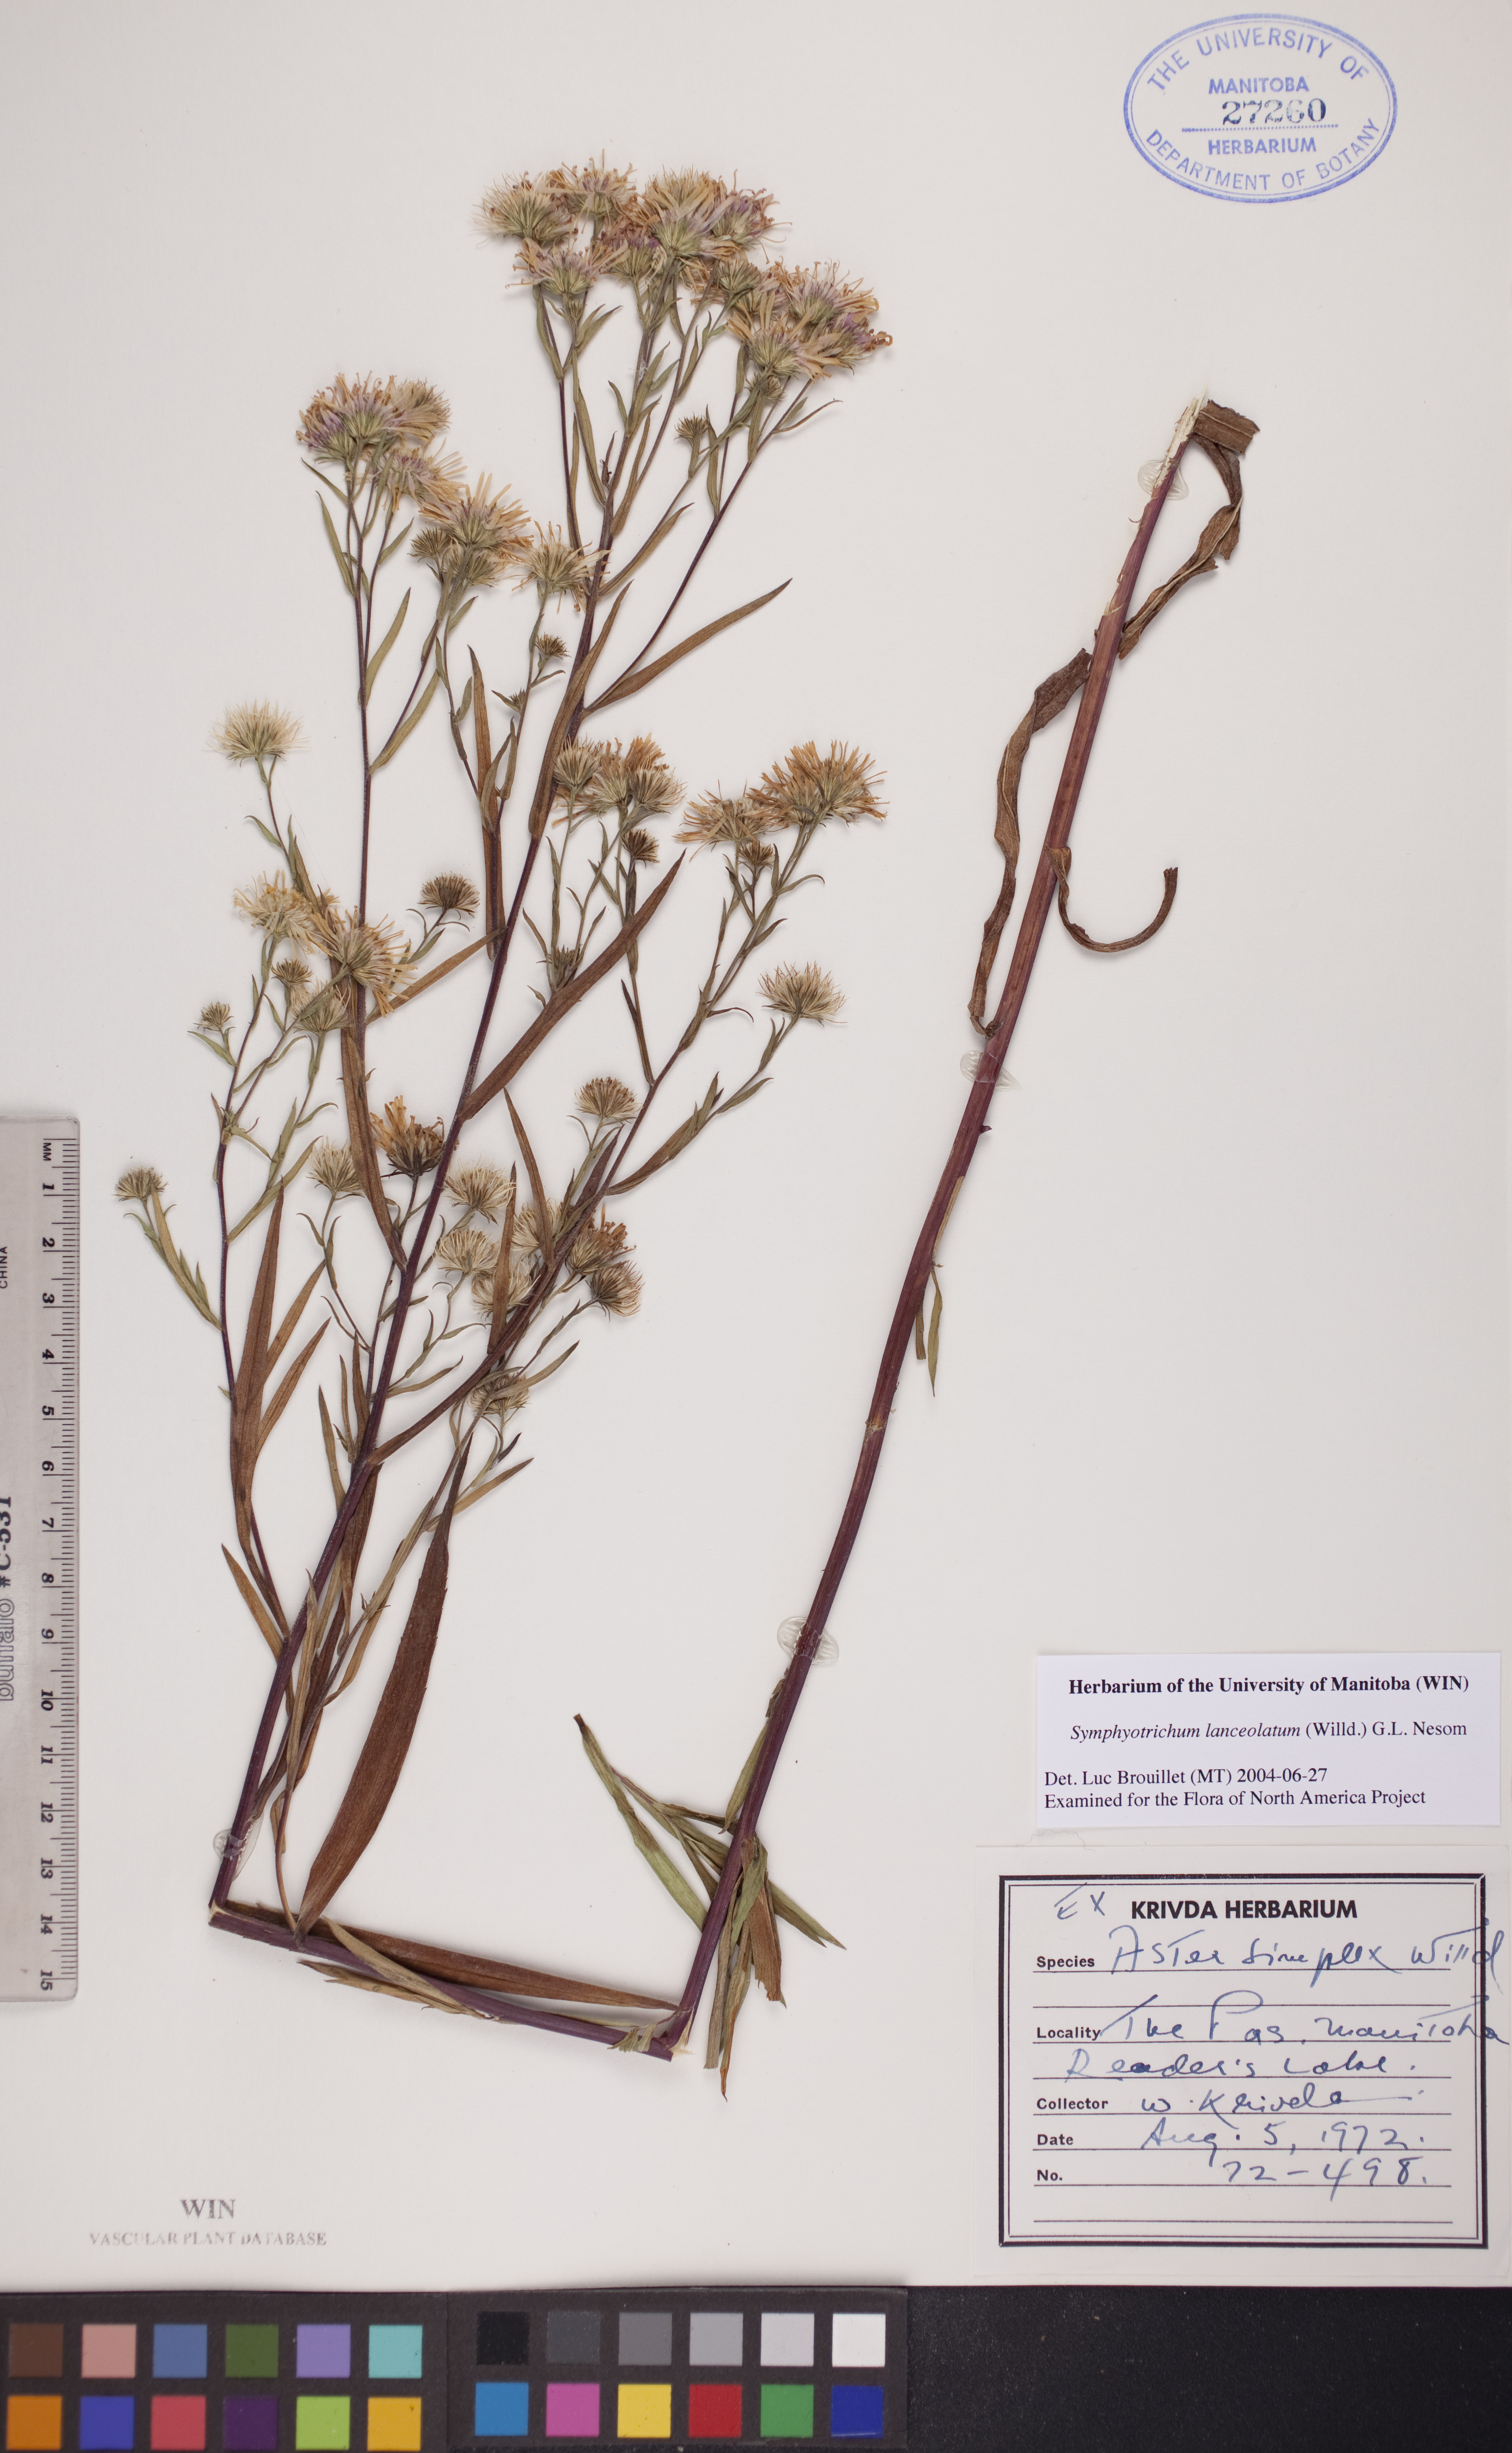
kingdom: Plantae
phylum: Tracheophyta
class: Magnoliopsida
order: Asterales
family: Asteraceae
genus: Symphyotrichum
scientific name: Symphyotrichum lanceolatum
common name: Panicled aster
